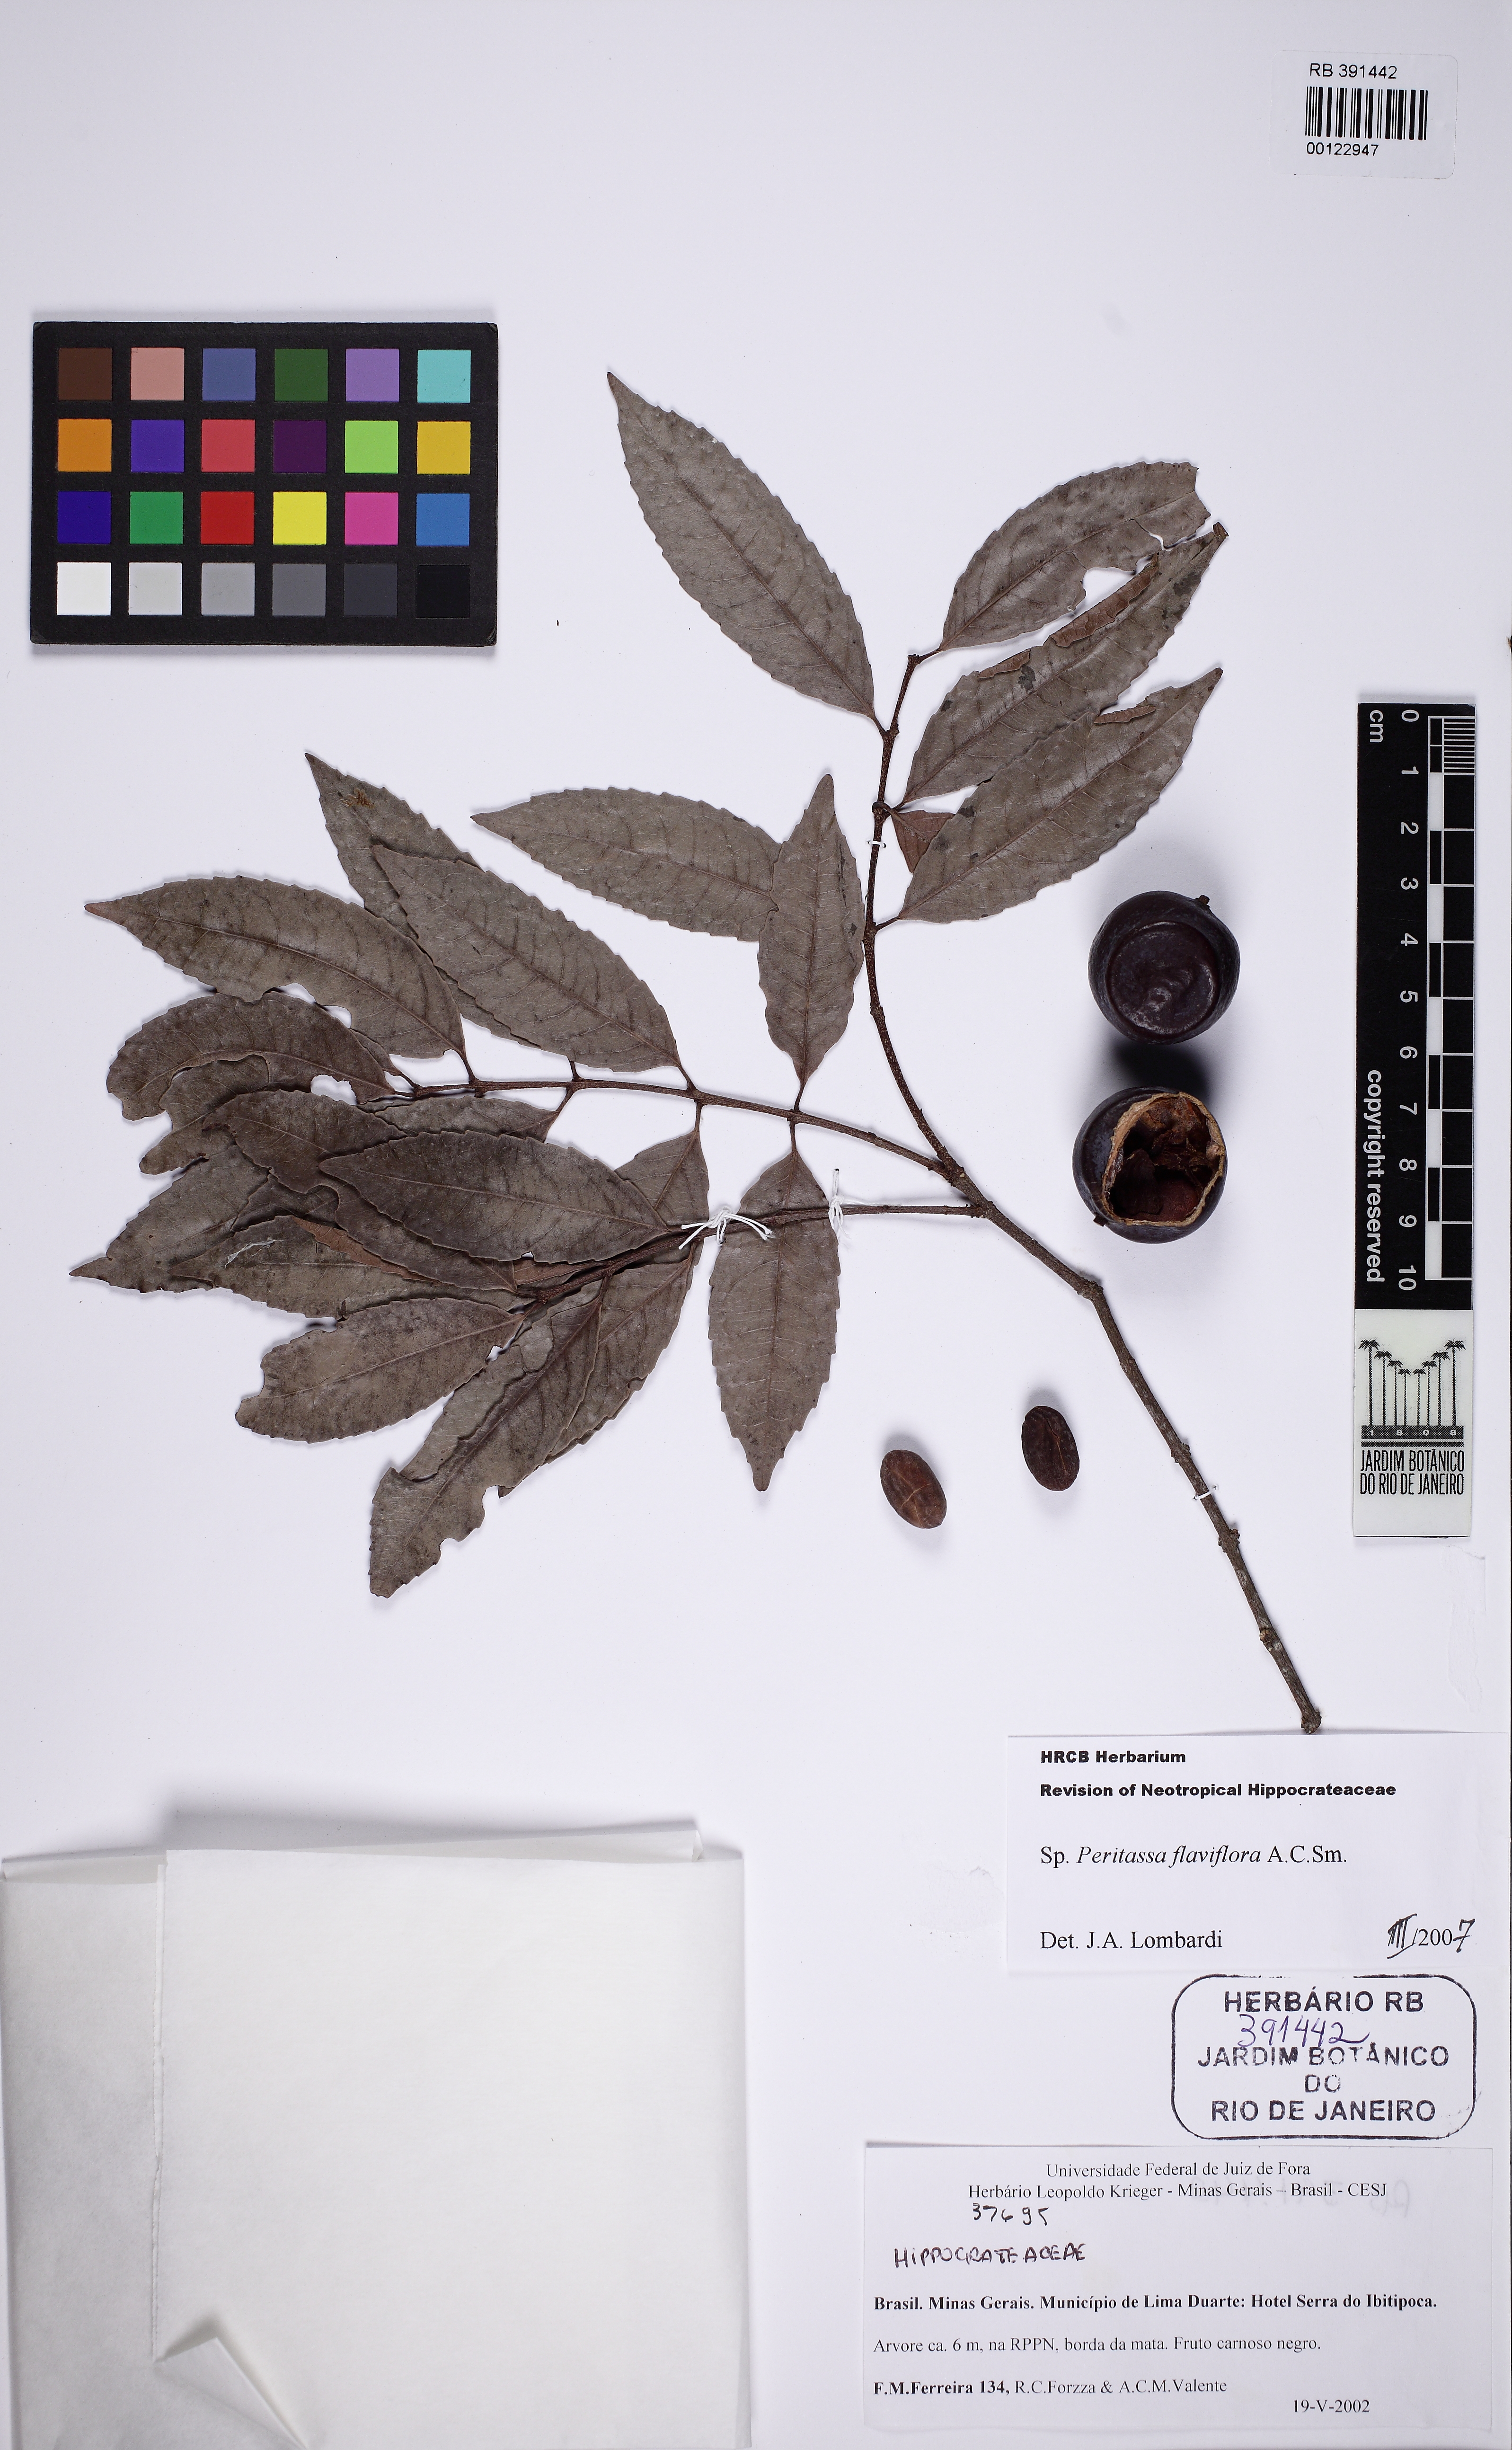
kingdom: Plantae
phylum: Tracheophyta
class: Magnoliopsida
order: Celastrales
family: Celastraceae
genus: Peritassa
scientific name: Peritassa flaviflora
